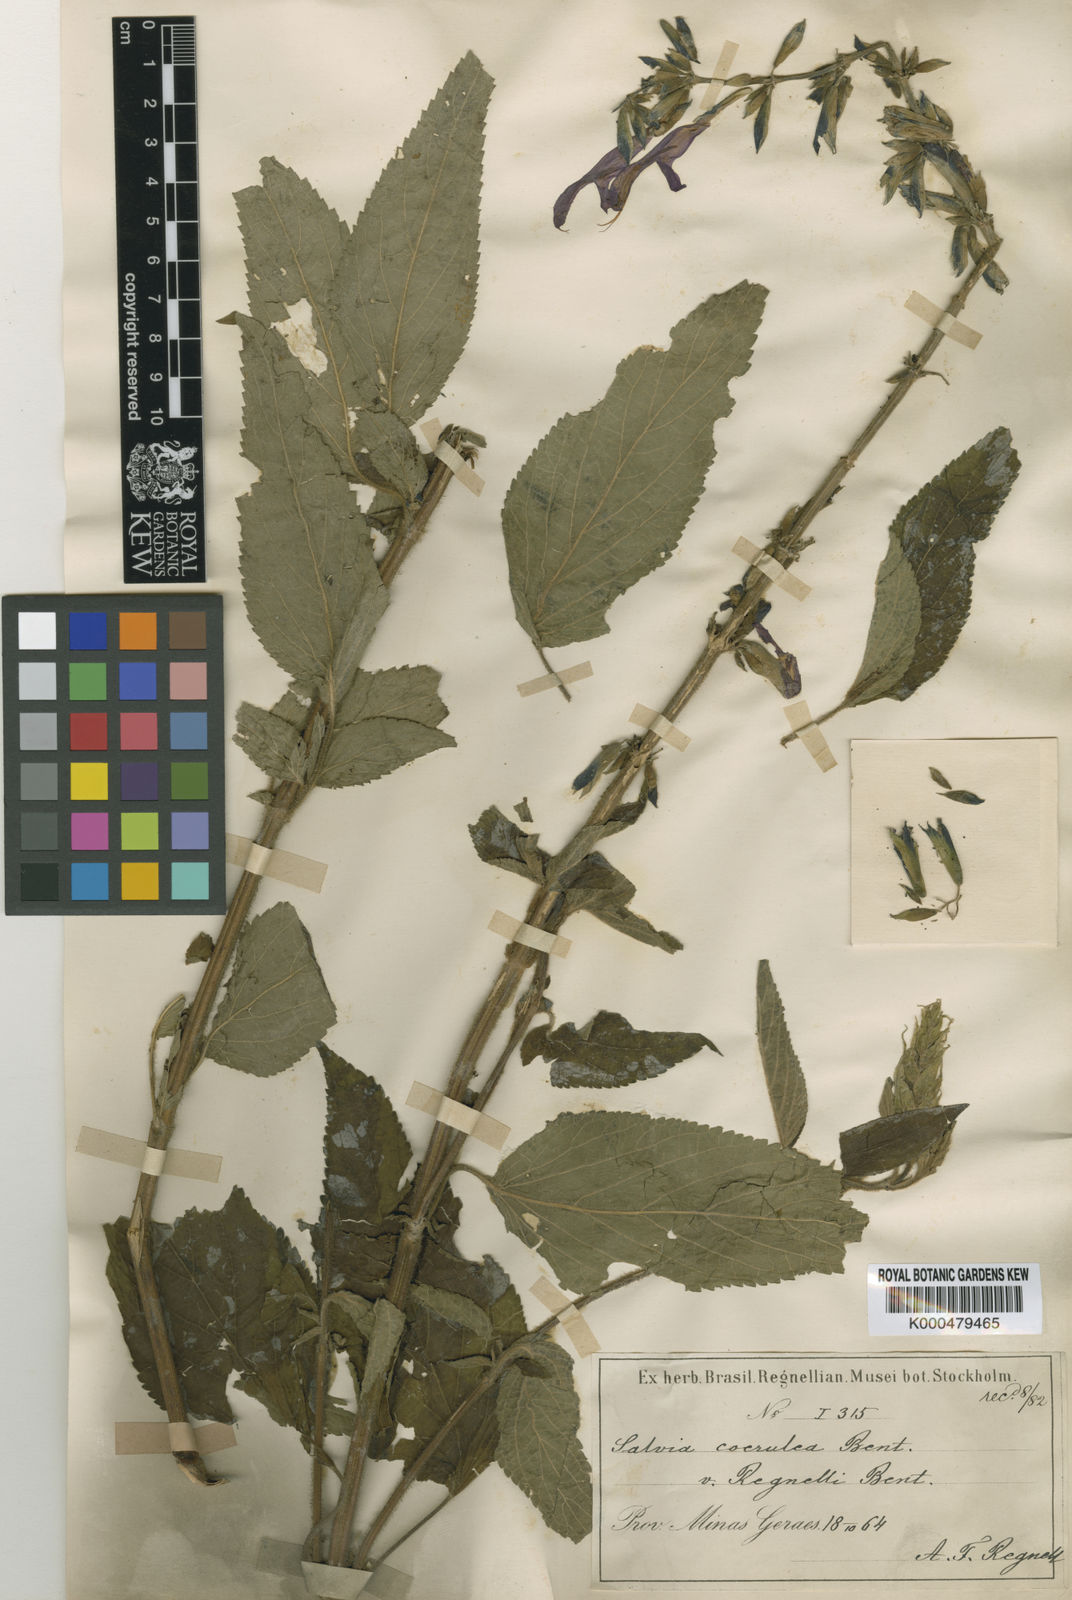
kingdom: Plantae
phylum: Tracheophyta
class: Magnoliopsida
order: Lamiales
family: Lamiaceae
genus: Salvia
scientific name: Salvia lamiifolia
